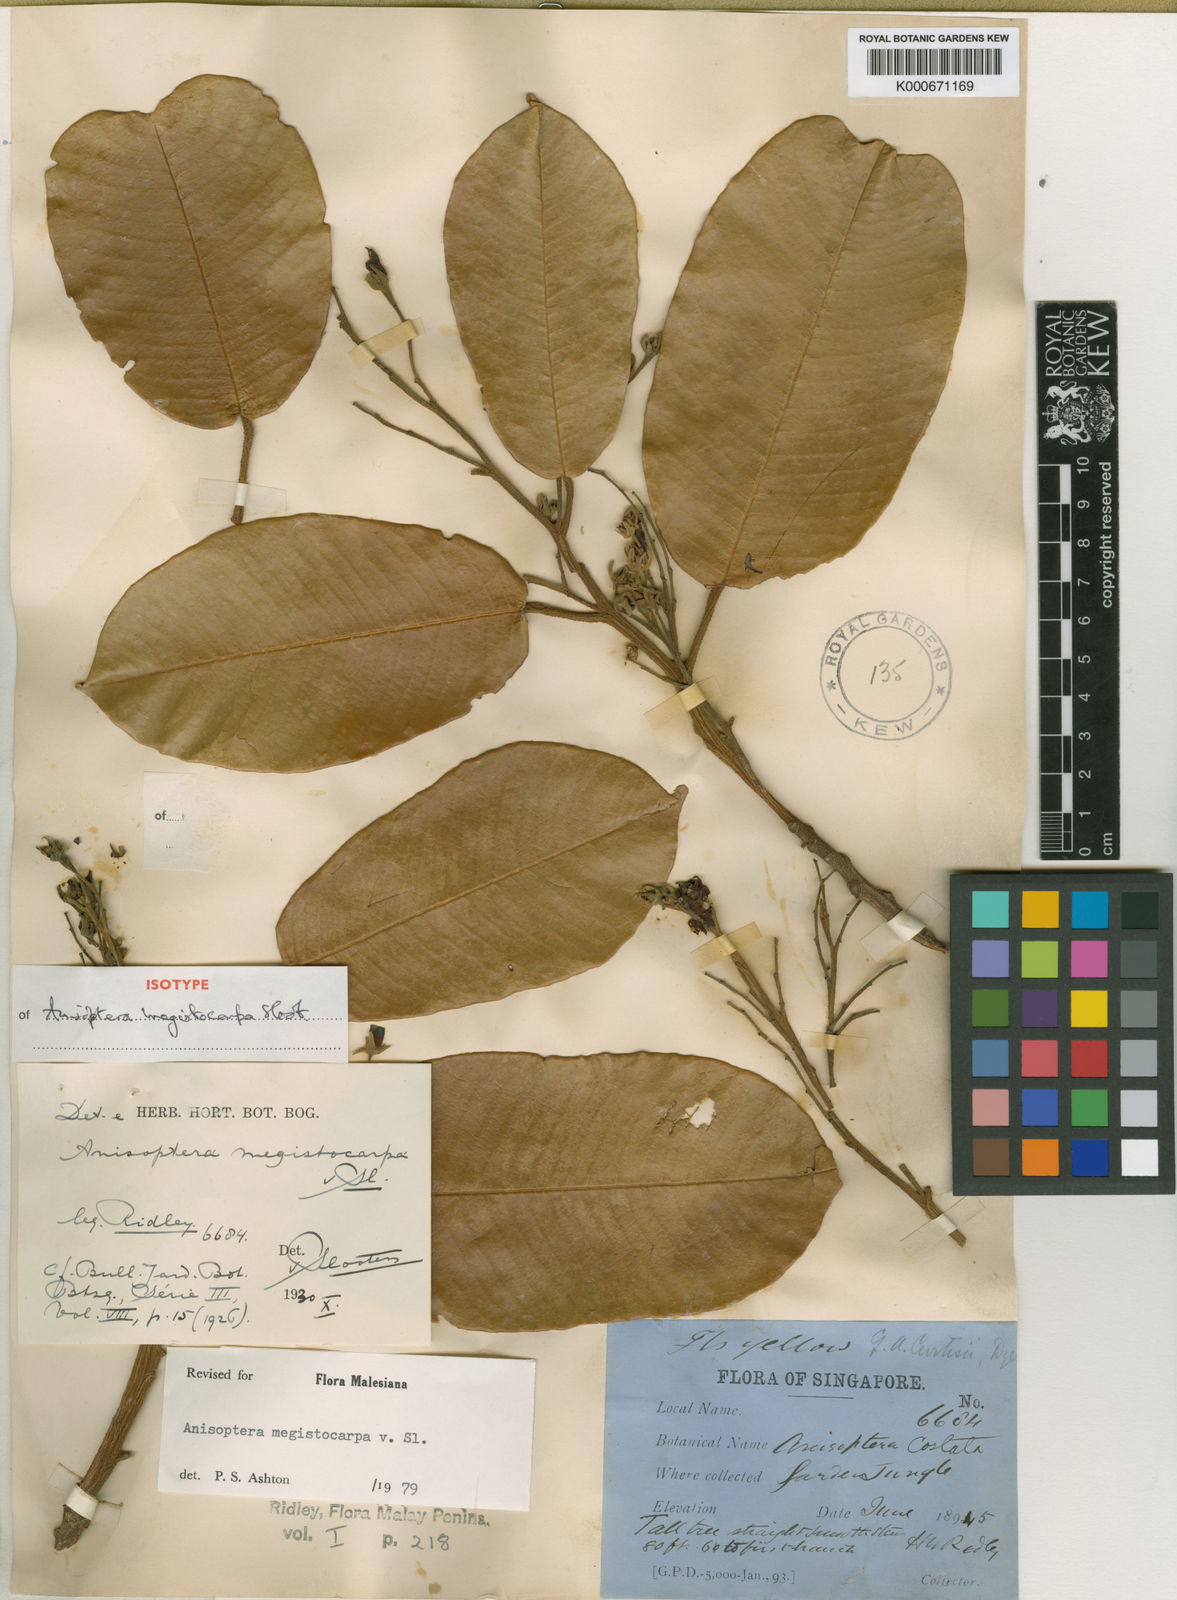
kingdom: Plantae
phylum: Tracheophyta
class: Magnoliopsida
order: Malvales
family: Dipterocarpaceae
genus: Anisoptera
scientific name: Anisoptera megistocarpa
